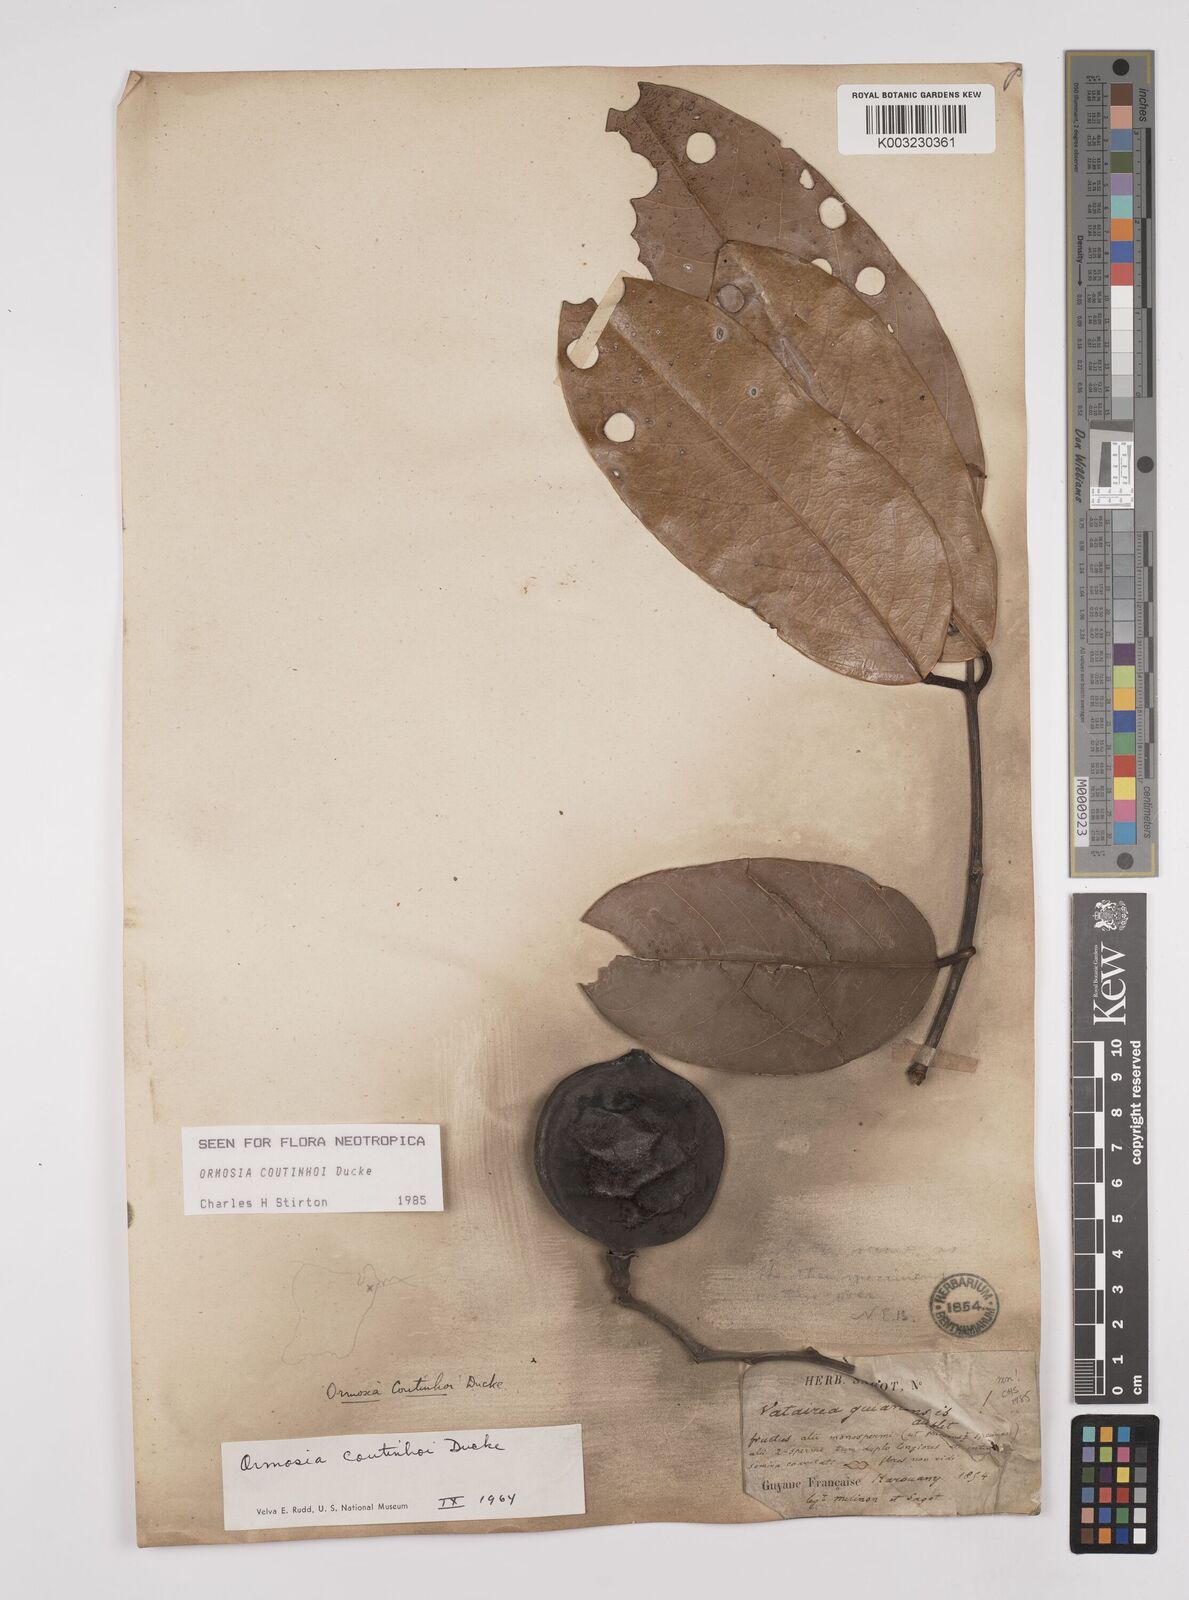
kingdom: Plantae
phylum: Tracheophyta
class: Magnoliopsida
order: Fabales
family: Fabaceae
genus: Ormosia
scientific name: Ormosia coutinhoi
